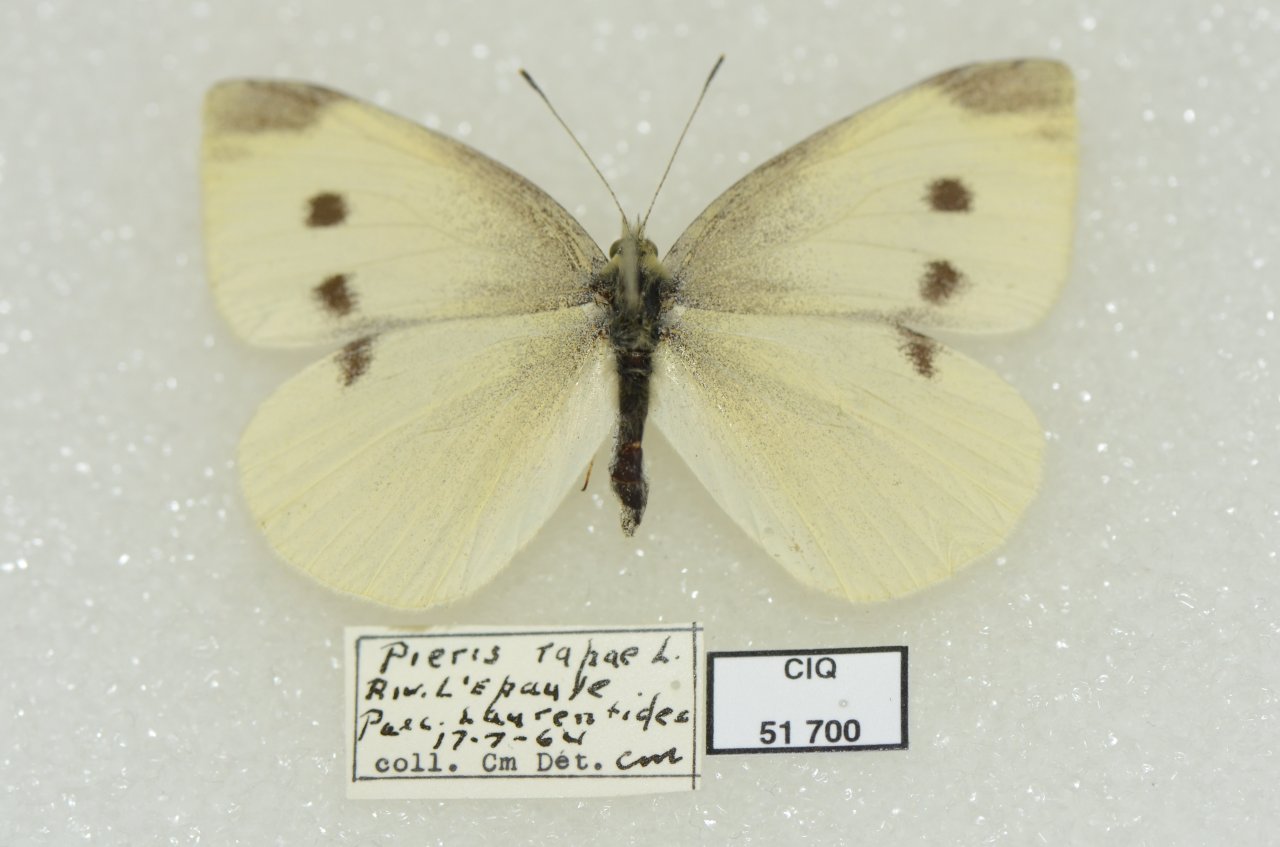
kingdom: Animalia
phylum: Arthropoda
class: Insecta
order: Lepidoptera
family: Pieridae
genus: Pieris
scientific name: Pieris rapae
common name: Cabbage White
